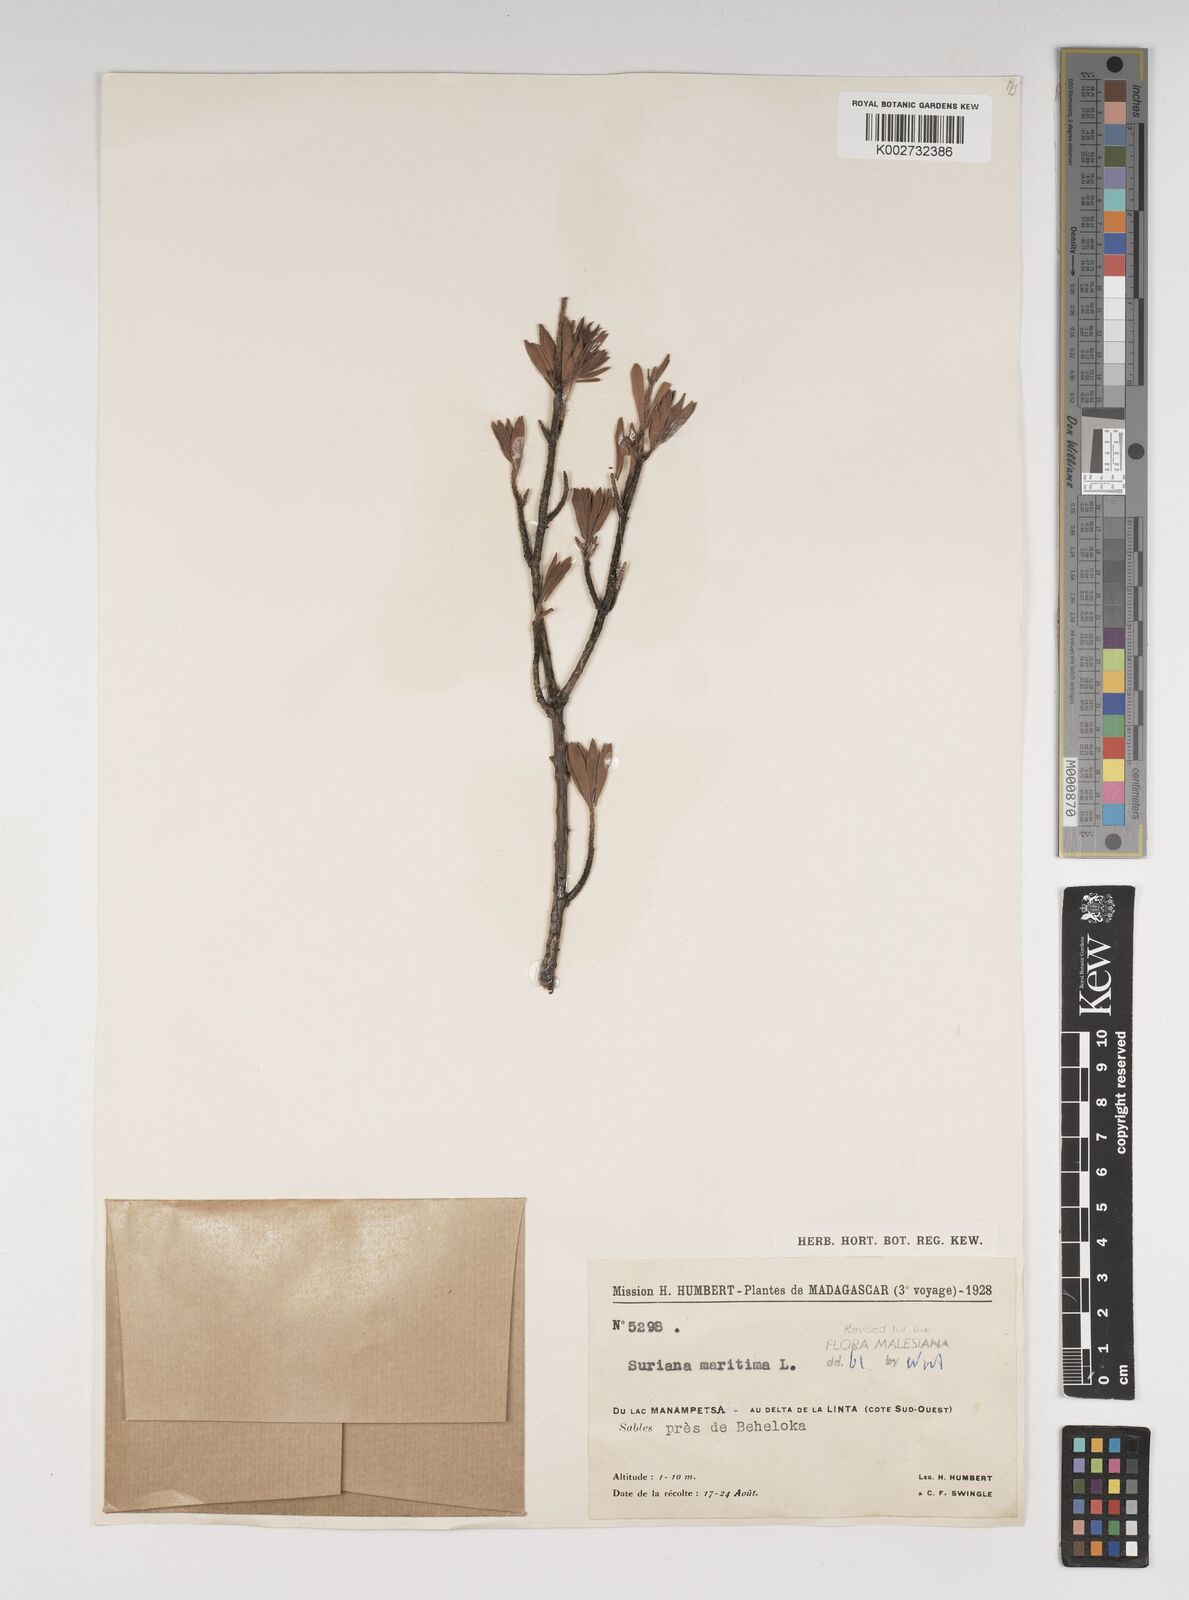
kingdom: Plantae
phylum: Tracheophyta
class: Magnoliopsida
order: Fabales
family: Surianaceae
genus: Suriana
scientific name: Suriana maritima
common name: Bay-cedar
